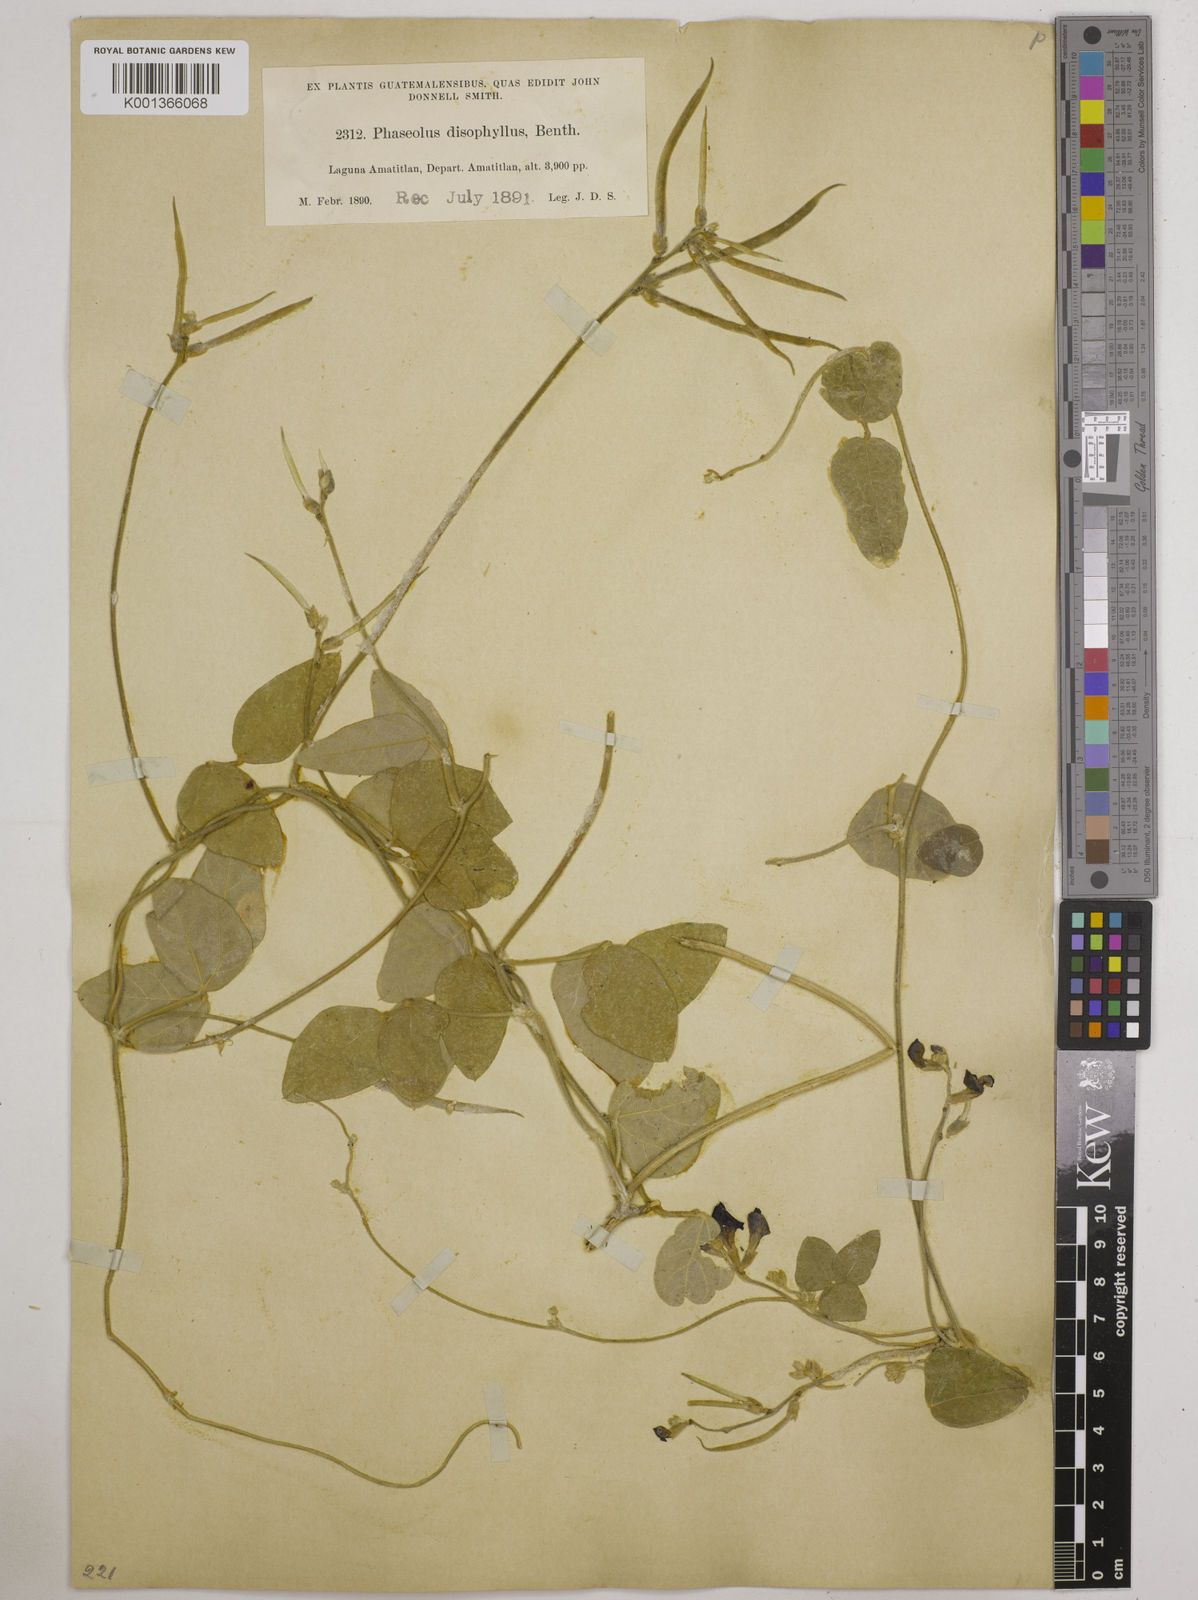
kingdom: Plantae
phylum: Tracheophyta
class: Magnoliopsida
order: Fabales
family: Fabaceae
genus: Macroptilium
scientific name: Macroptilium atropurpureum
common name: Purple bushbean
